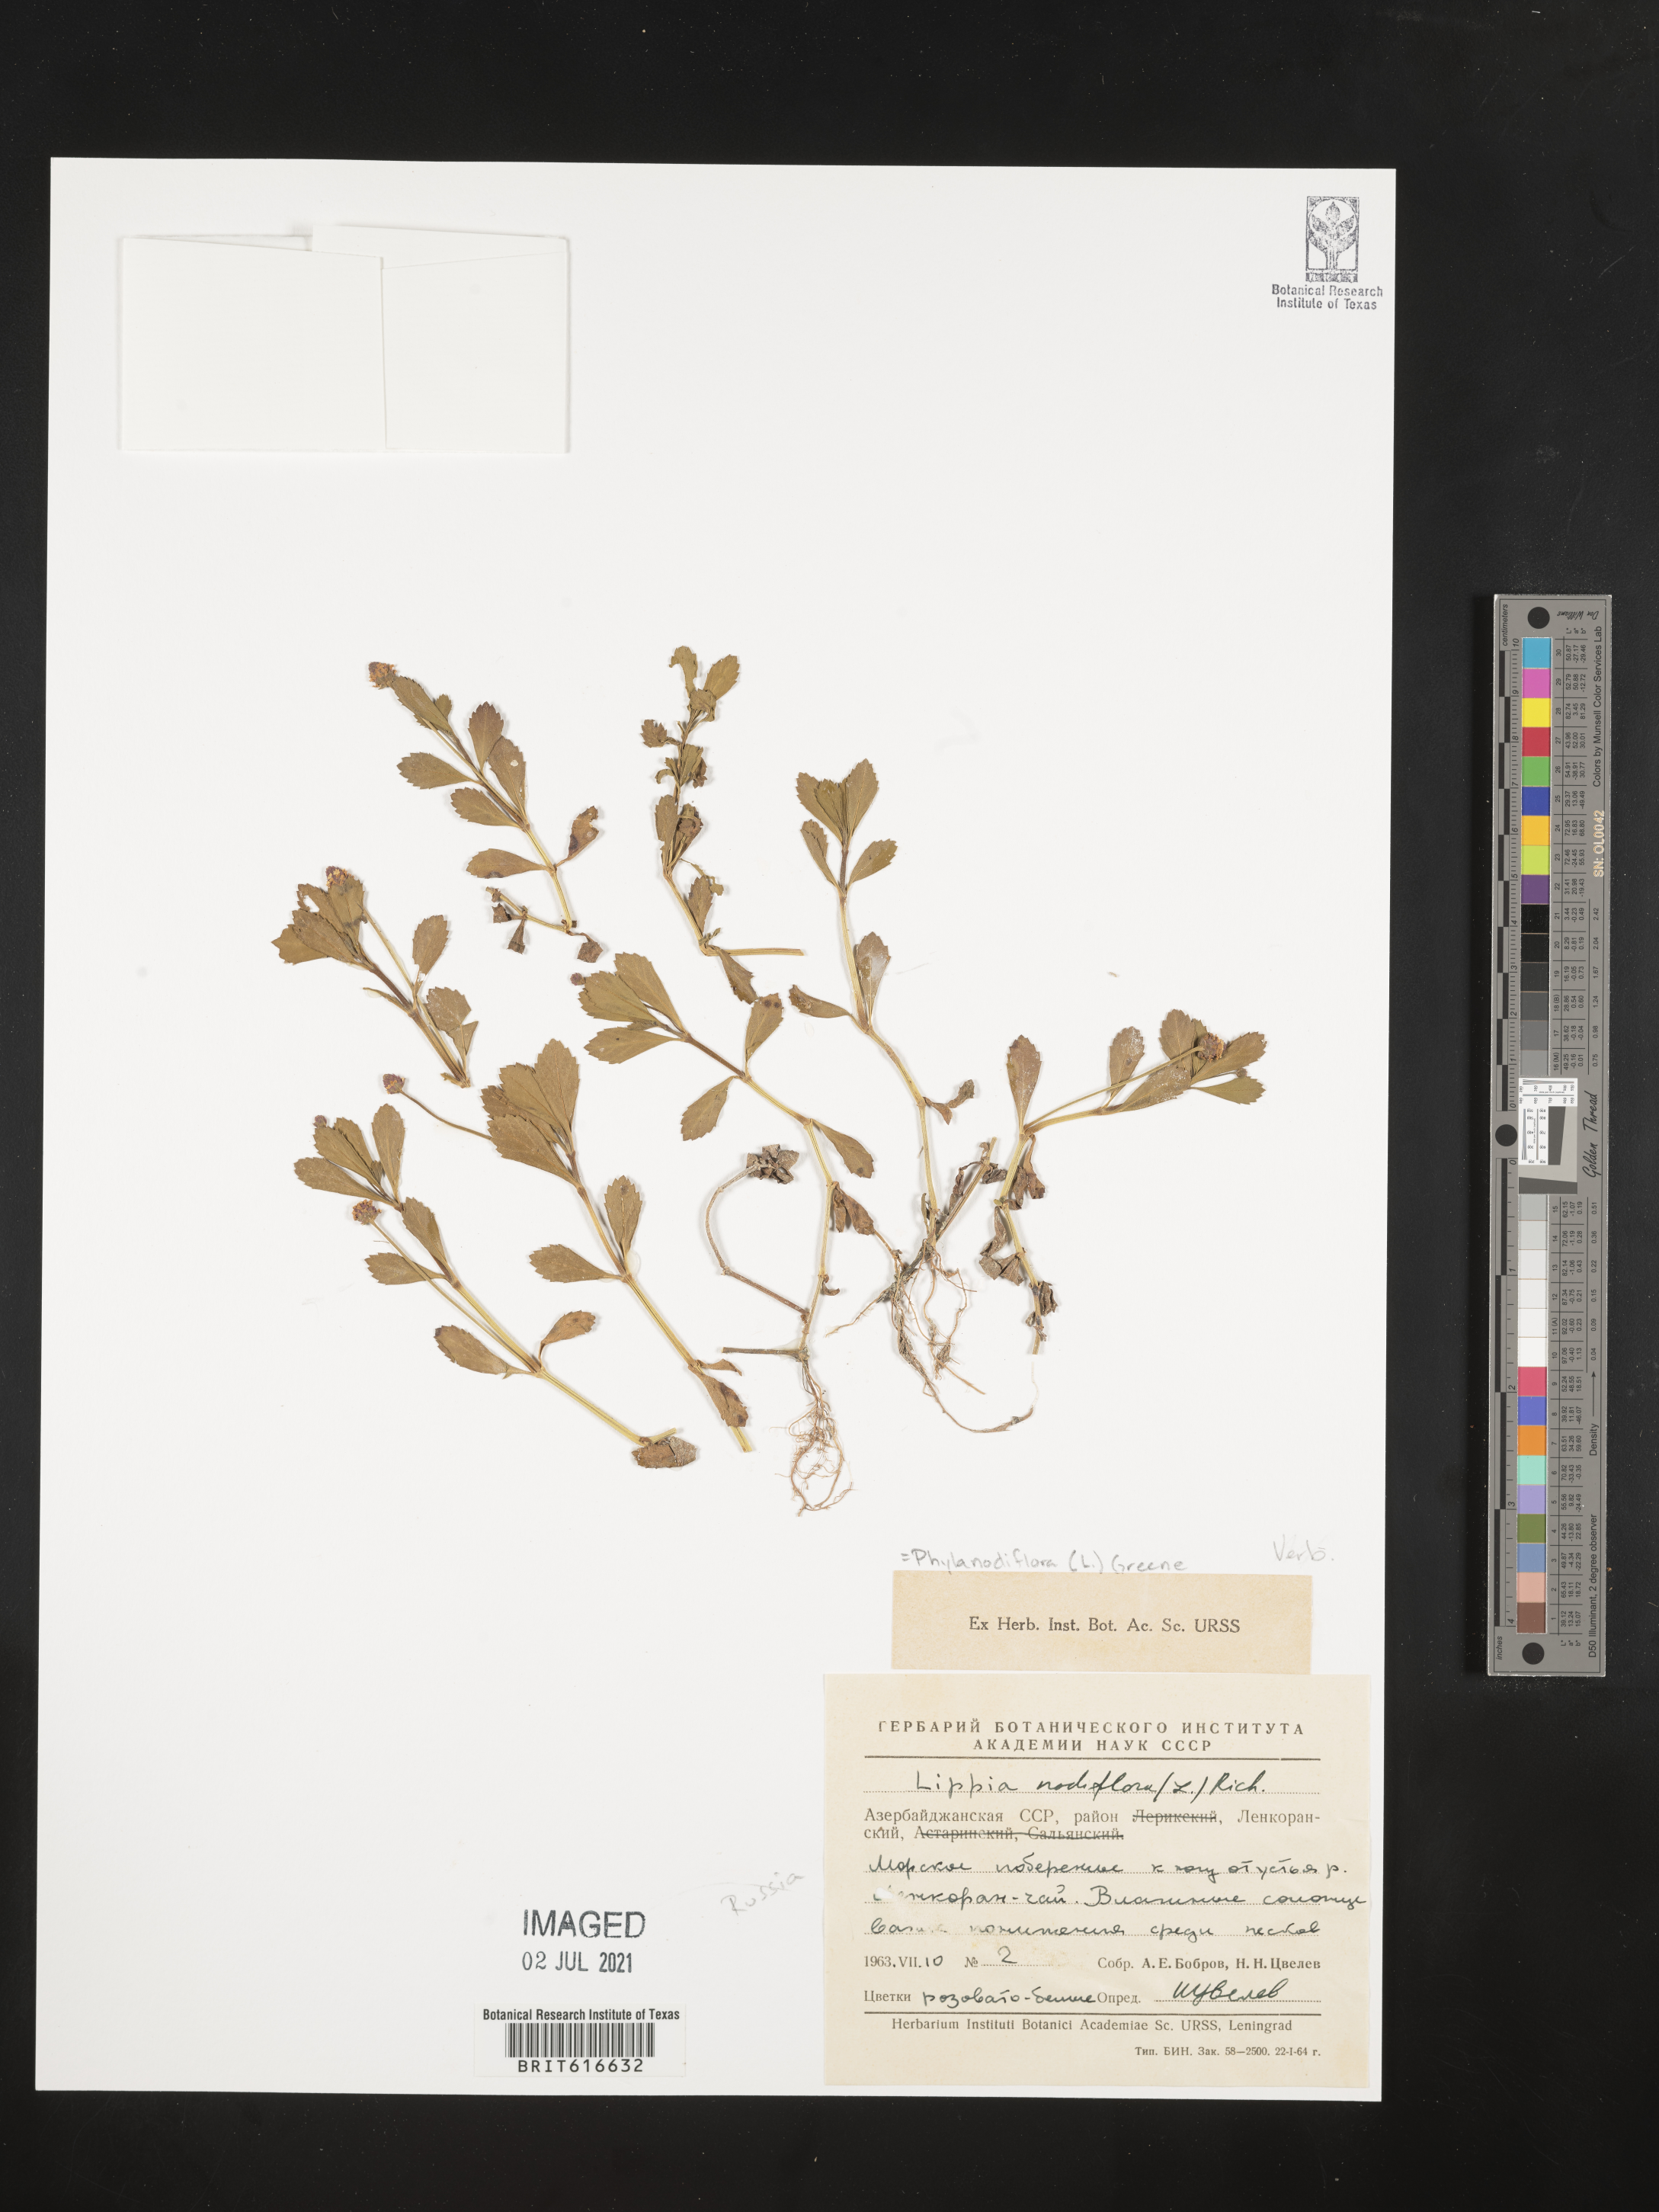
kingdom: Plantae
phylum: Tracheophyta
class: Magnoliopsida
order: Lamiales
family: Verbenaceae
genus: Phyla
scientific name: Phyla nodiflora
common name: Frogfruit
